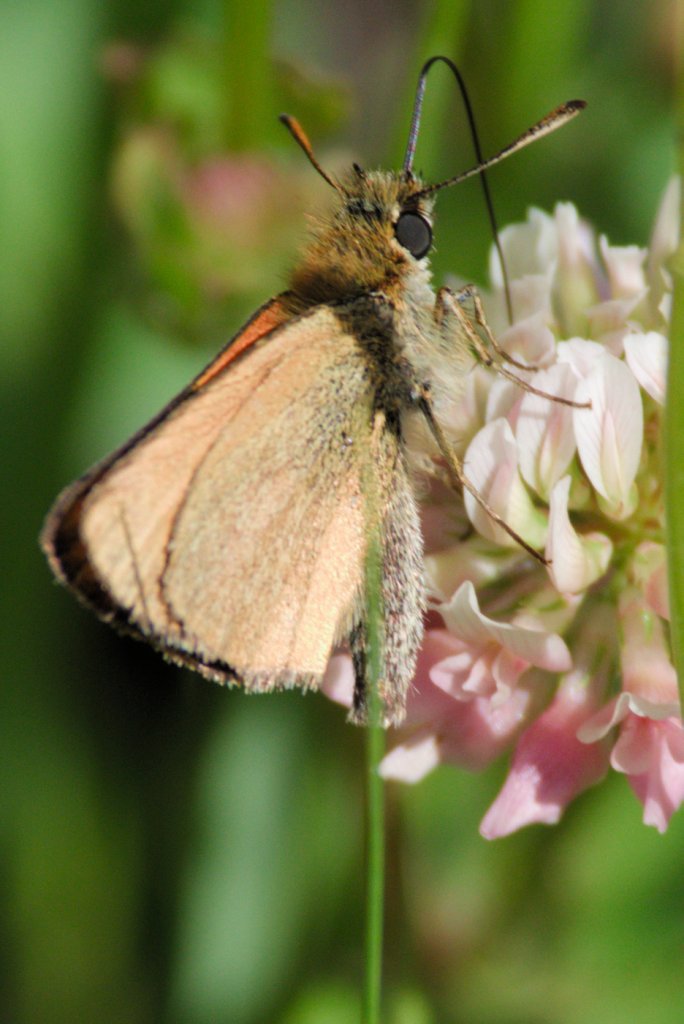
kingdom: Animalia
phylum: Arthropoda
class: Insecta
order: Lepidoptera
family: Hesperiidae
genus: Thymelicus
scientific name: Thymelicus lineola
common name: European Skipper
